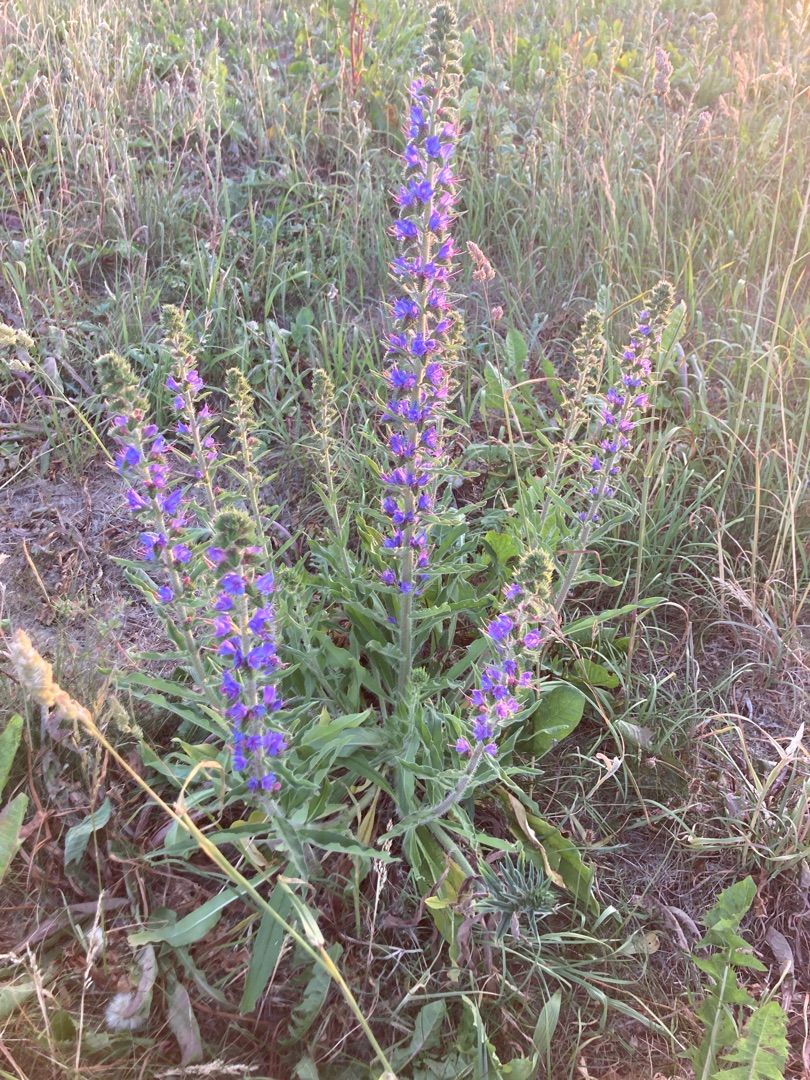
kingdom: Plantae
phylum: Tracheophyta
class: Magnoliopsida
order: Boraginales
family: Boraginaceae
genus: Echium
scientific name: Echium vulgare
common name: Slangehoved
